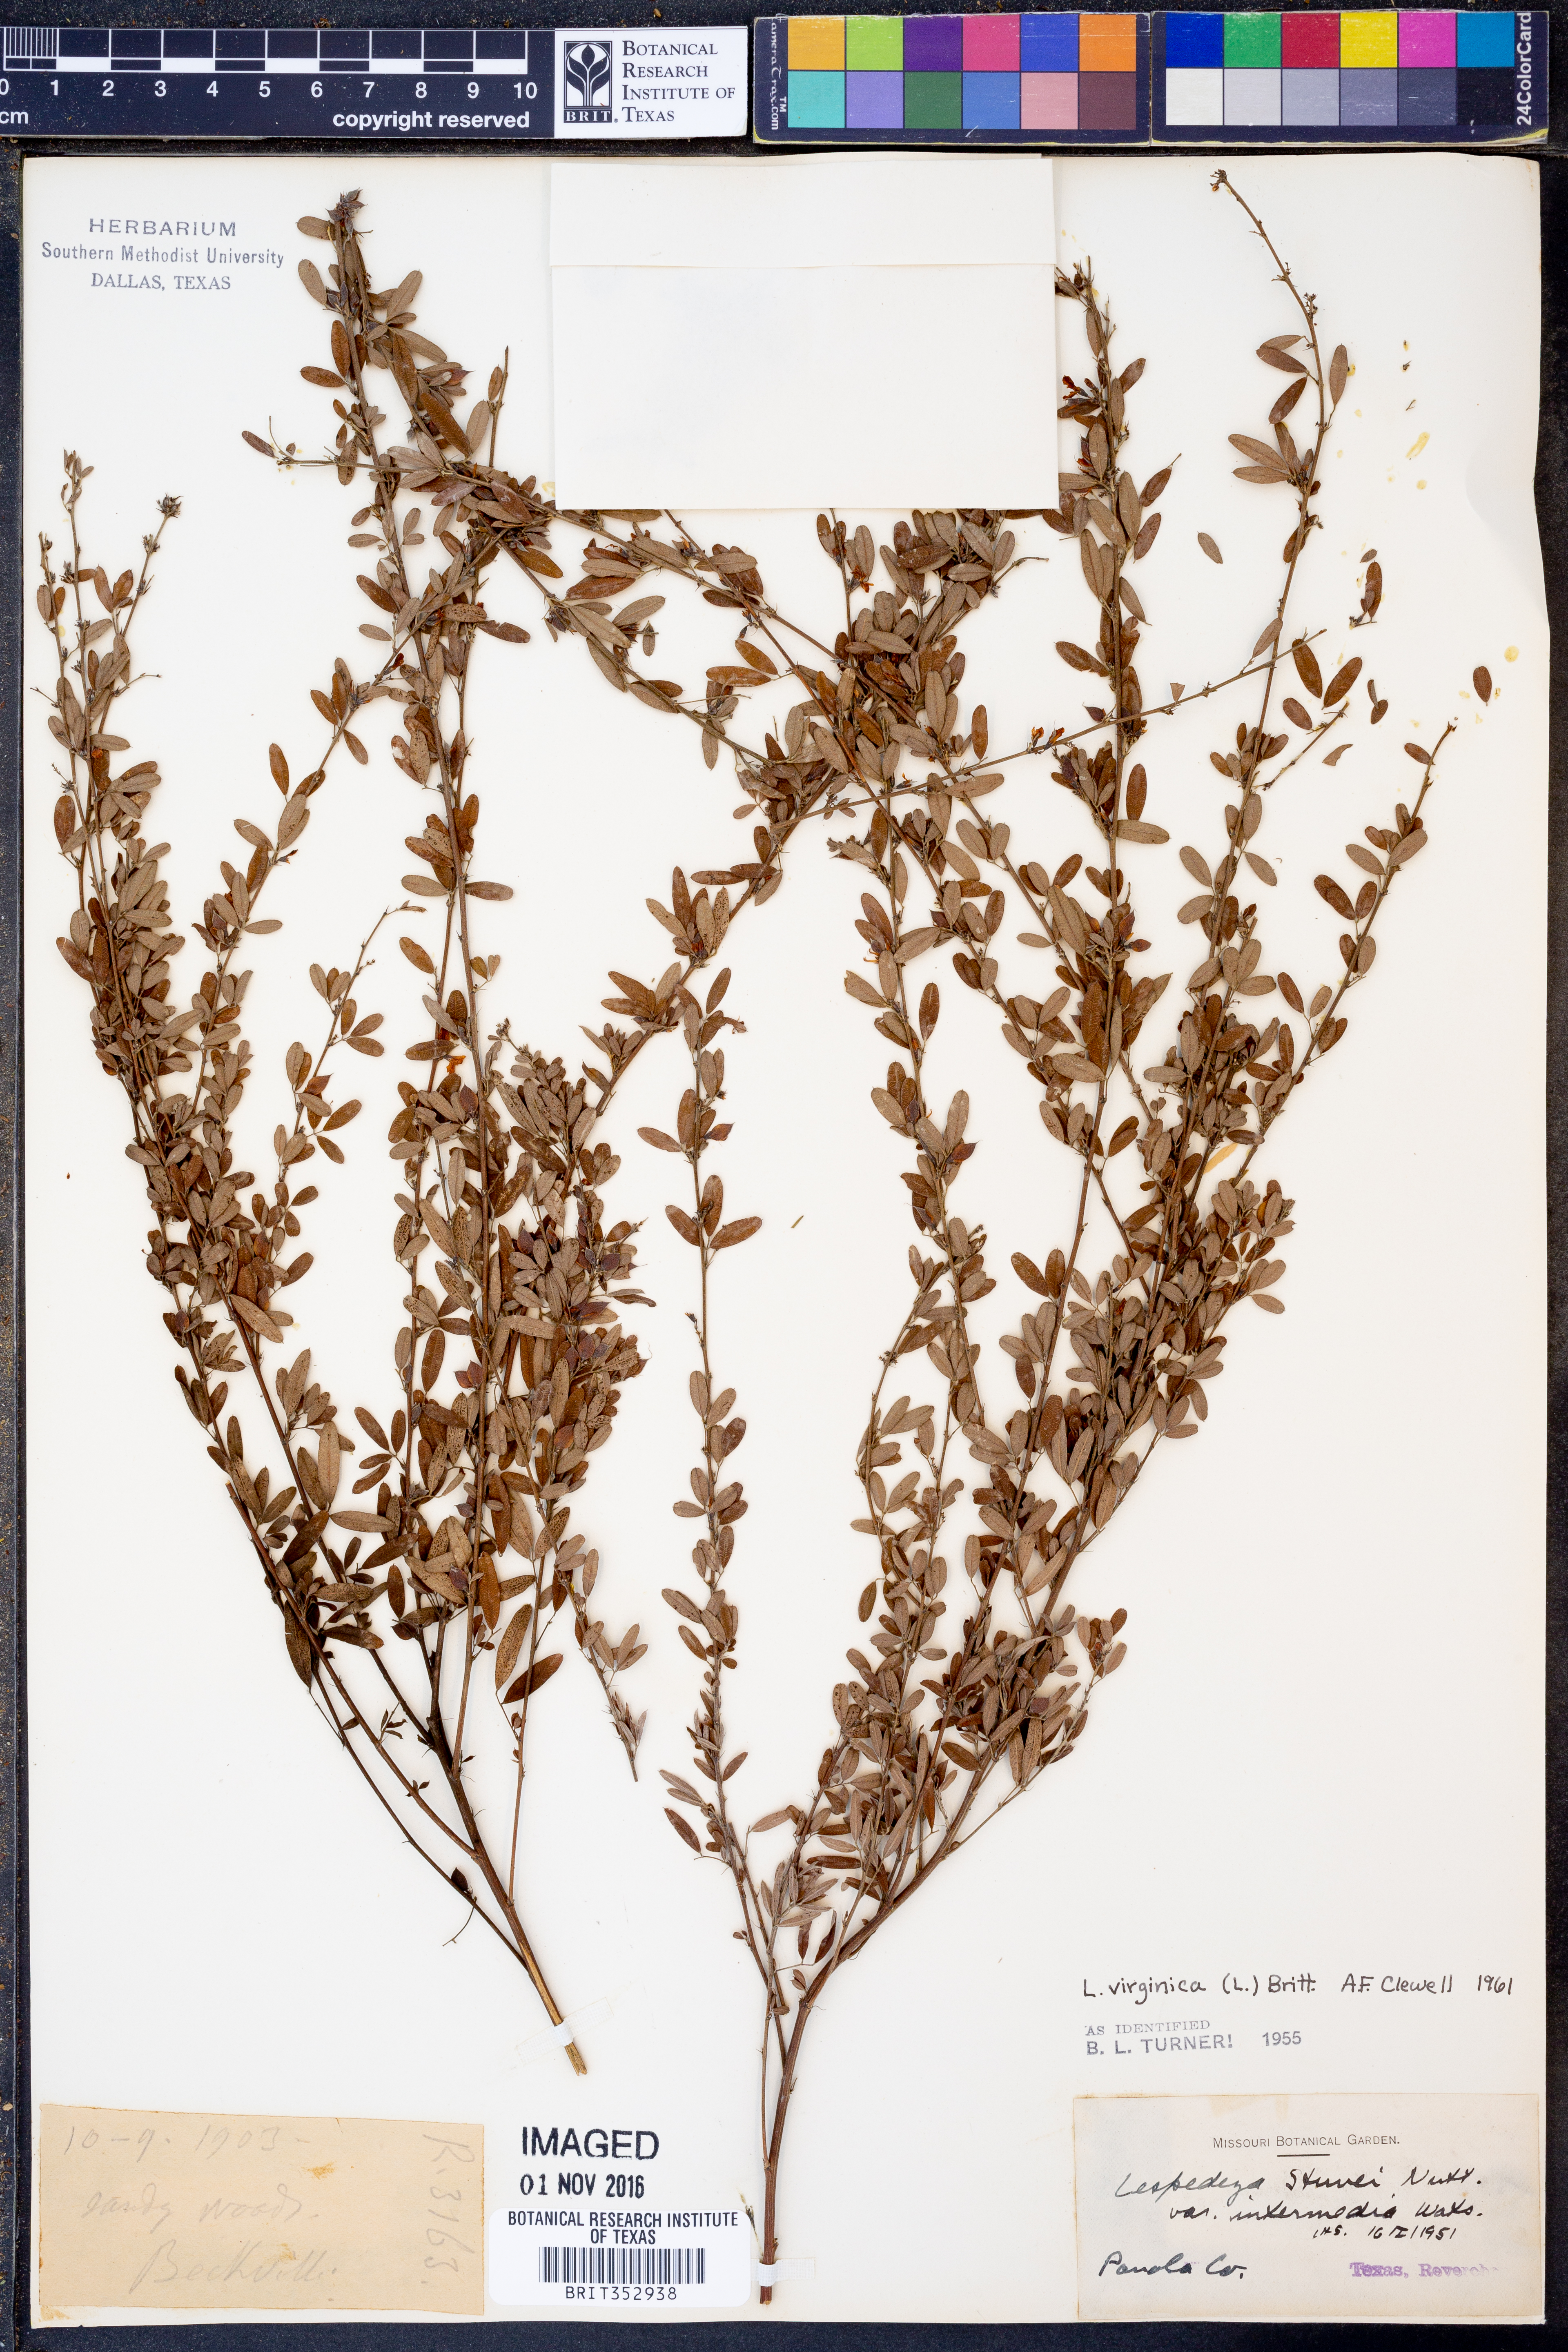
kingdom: Plantae
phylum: Tracheophyta
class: Magnoliopsida
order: Fabales
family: Fabaceae
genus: Lespedeza
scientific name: Lespedeza virginica
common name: Slender bush-clover
